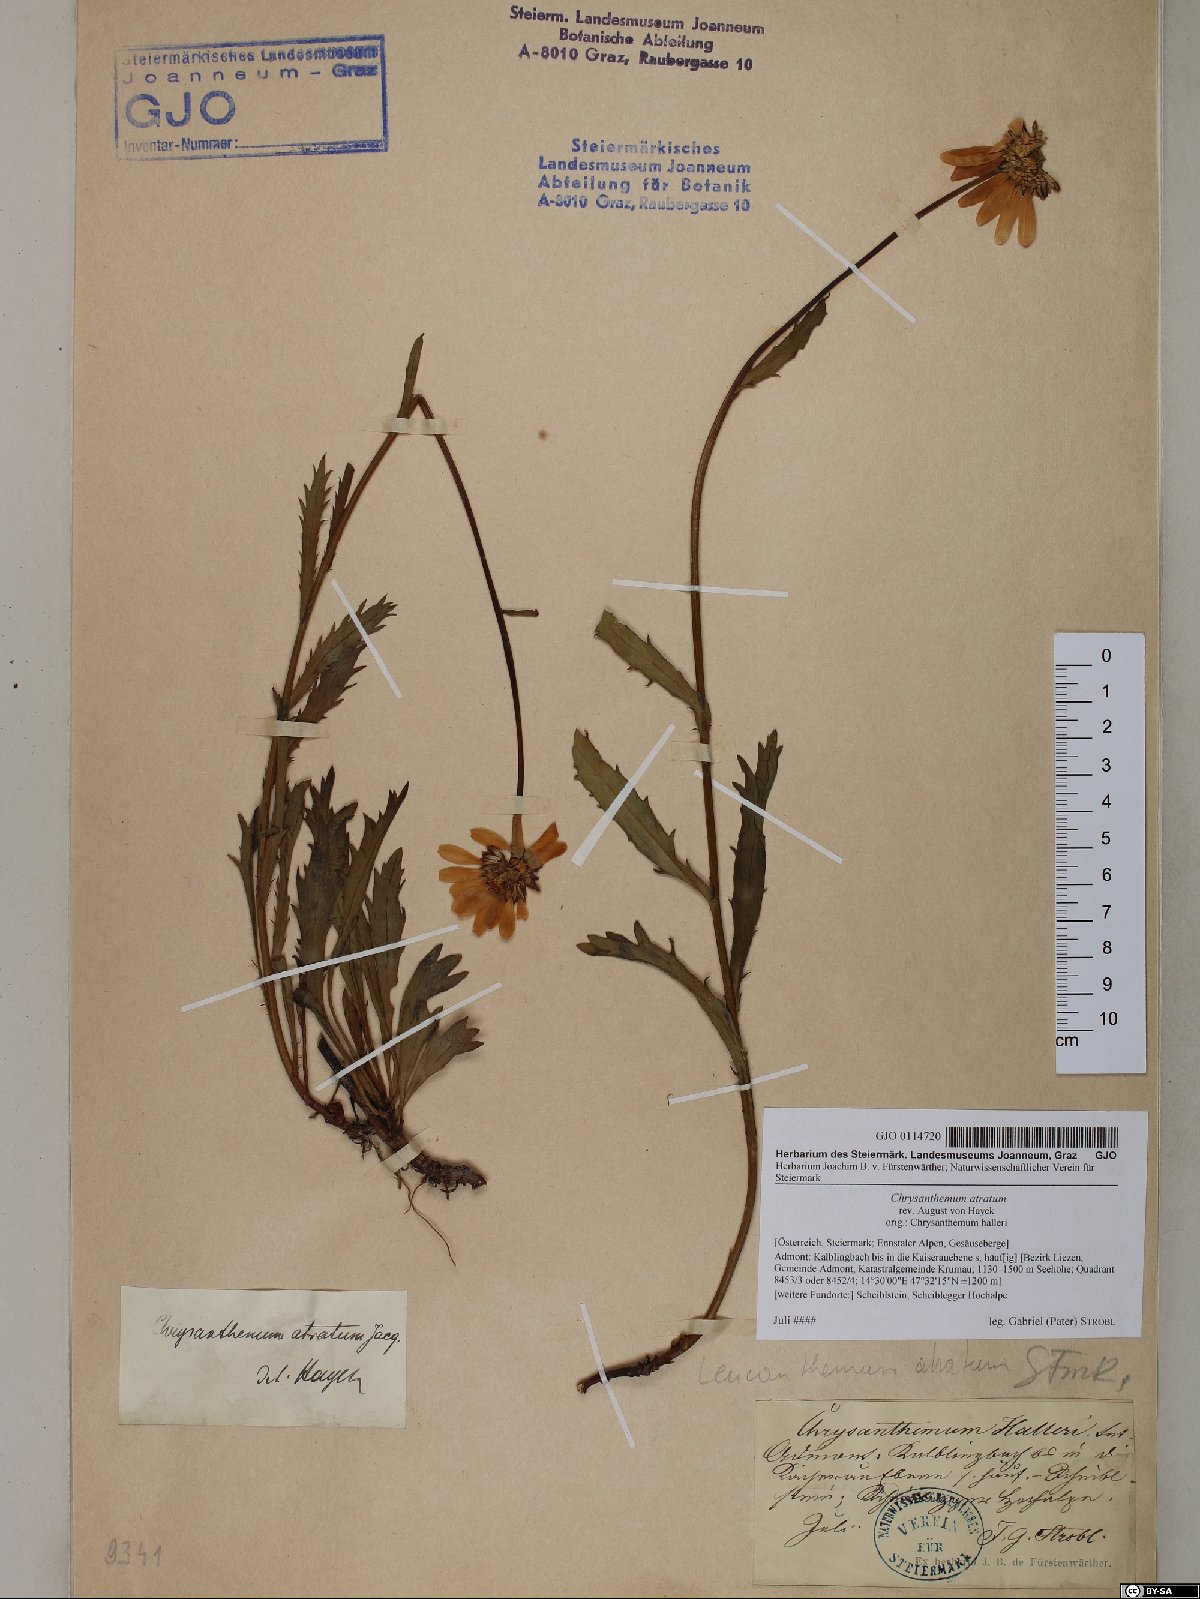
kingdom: Plantae
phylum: Tracheophyta
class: Magnoliopsida
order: Asterales
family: Asteraceae
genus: Leucanthemum
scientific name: Leucanthemum atratum
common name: Saw-leaved moon-daisy
